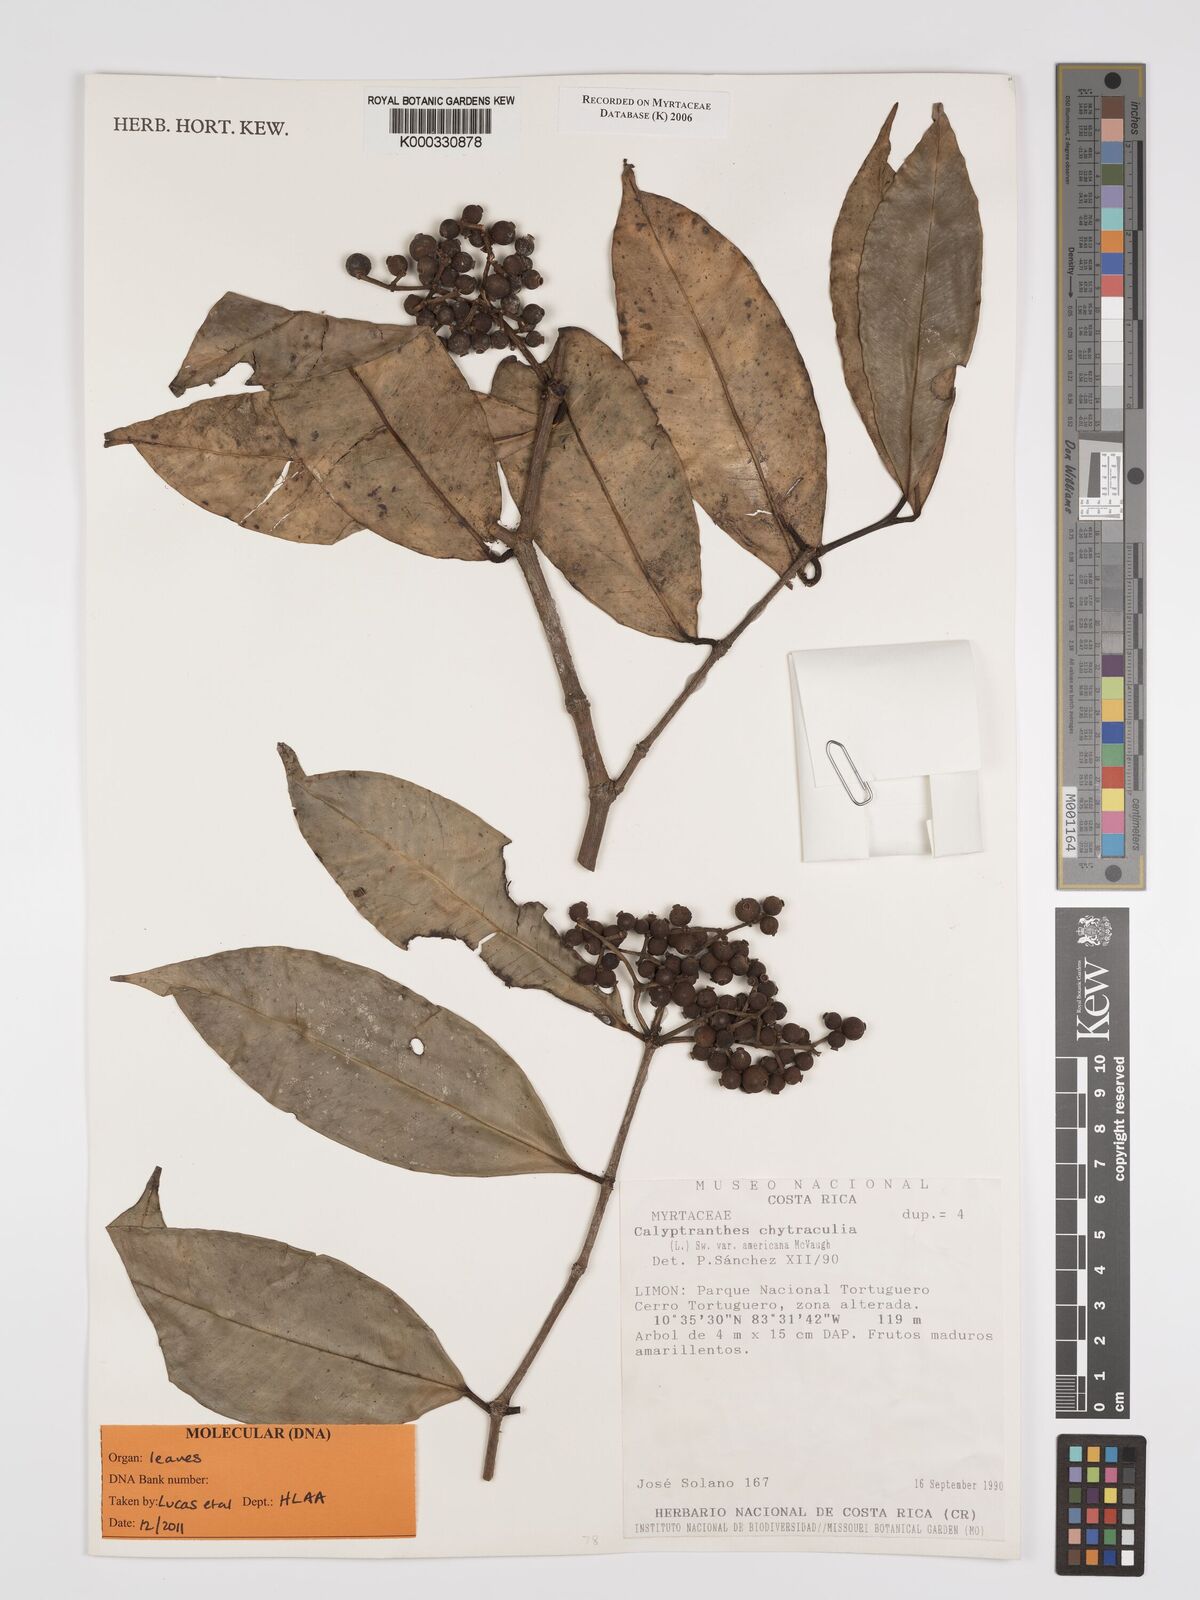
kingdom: Plantae
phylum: Tracheophyta
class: Magnoliopsida
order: Myrtales
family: Myrtaceae
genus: Myrcia
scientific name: Myrcia chytraculia
